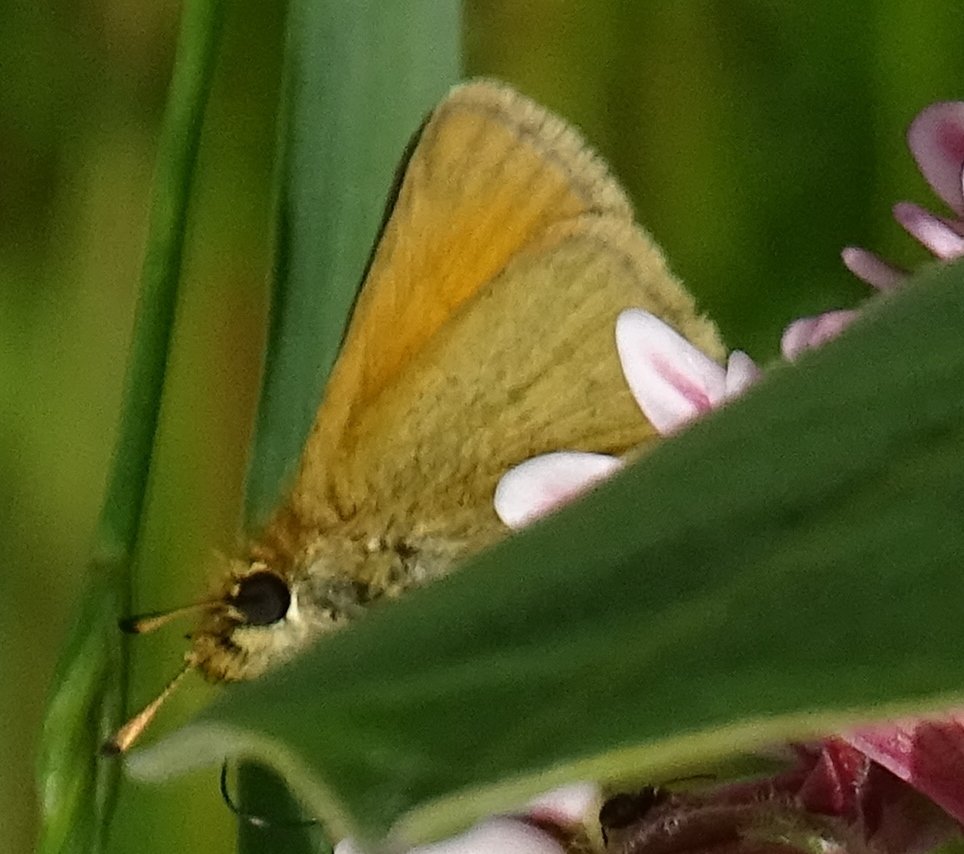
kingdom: Animalia
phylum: Arthropoda
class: Insecta
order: Lepidoptera
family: Hesperiidae
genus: Thymelicus
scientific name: Thymelicus lineola
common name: European Skipper
